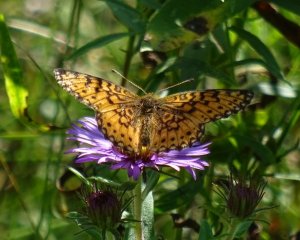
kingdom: Animalia
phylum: Arthropoda
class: Insecta
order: Lepidoptera
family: Nymphalidae
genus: Boloria
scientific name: Boloria selene
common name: Silver-bordered Fritillary
